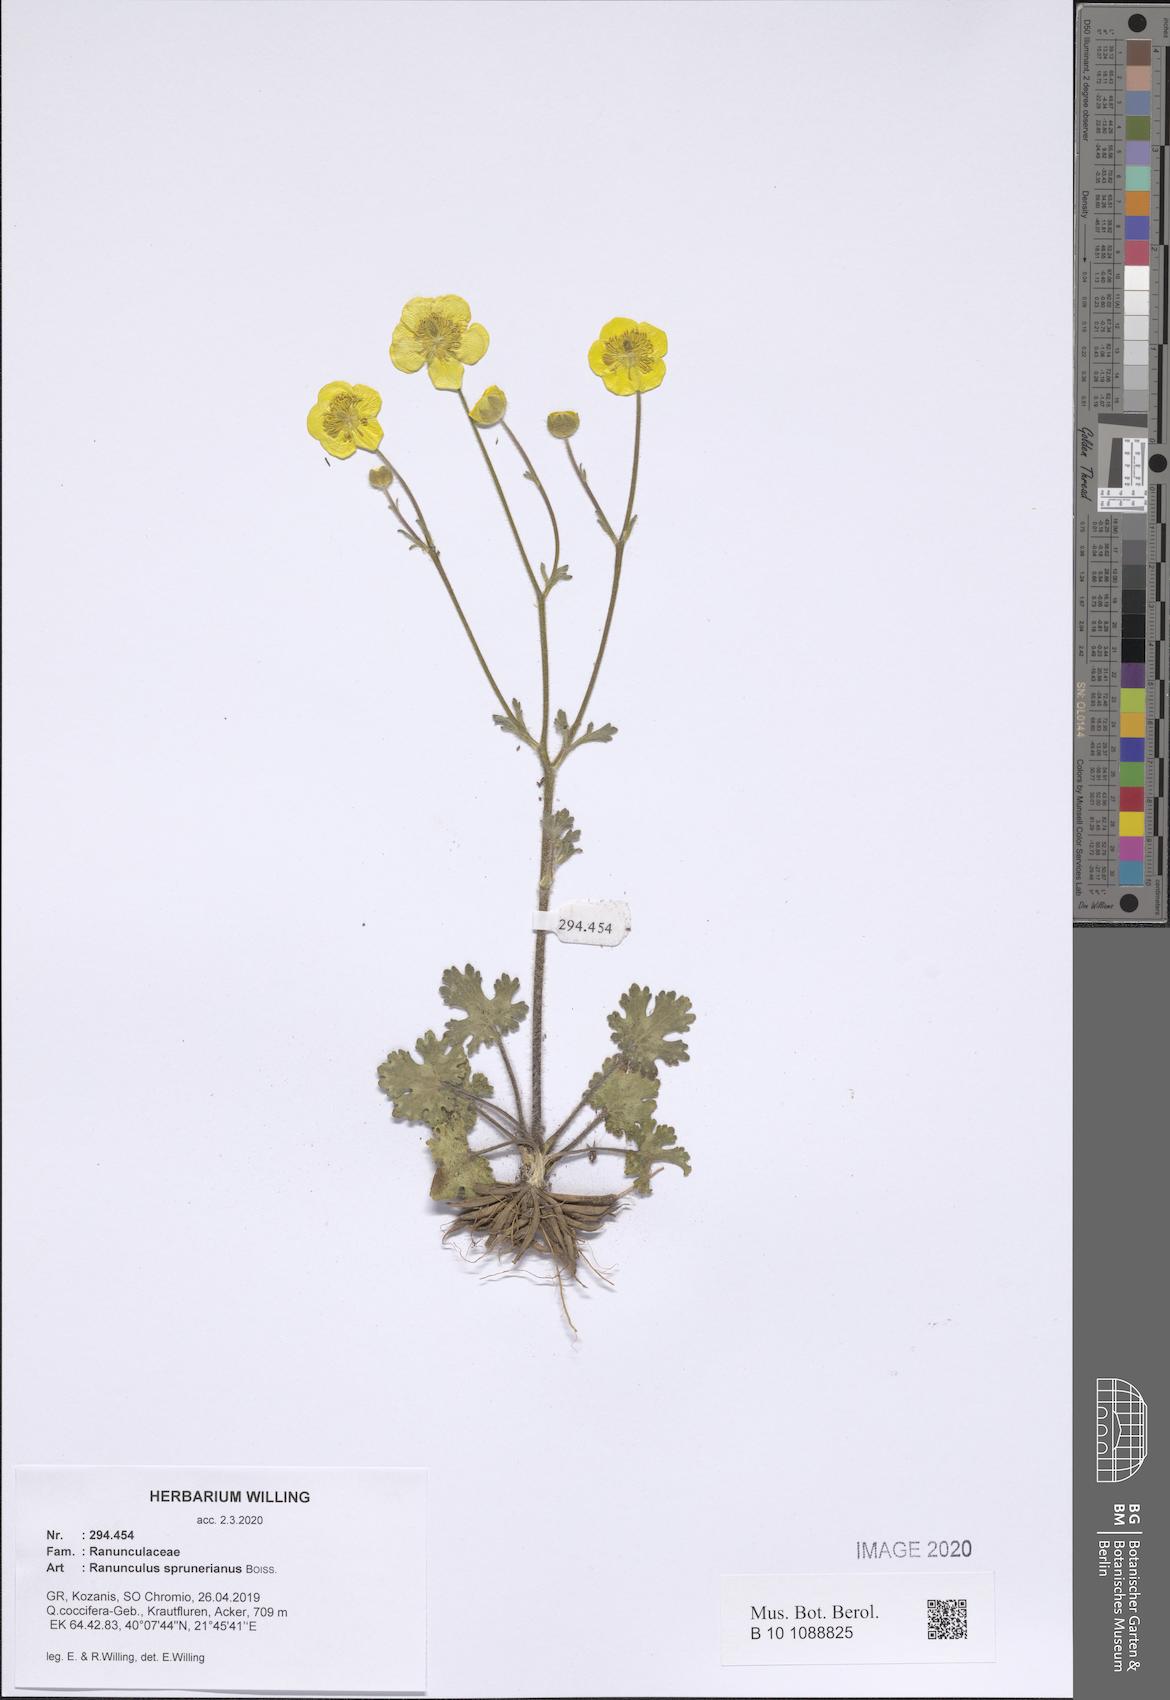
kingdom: Plantae
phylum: Tracheophyta
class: Magnoliopsida
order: Ranunculales
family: Ranunculaceae
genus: Ranunculus
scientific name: Ranunculus sprunerianus
